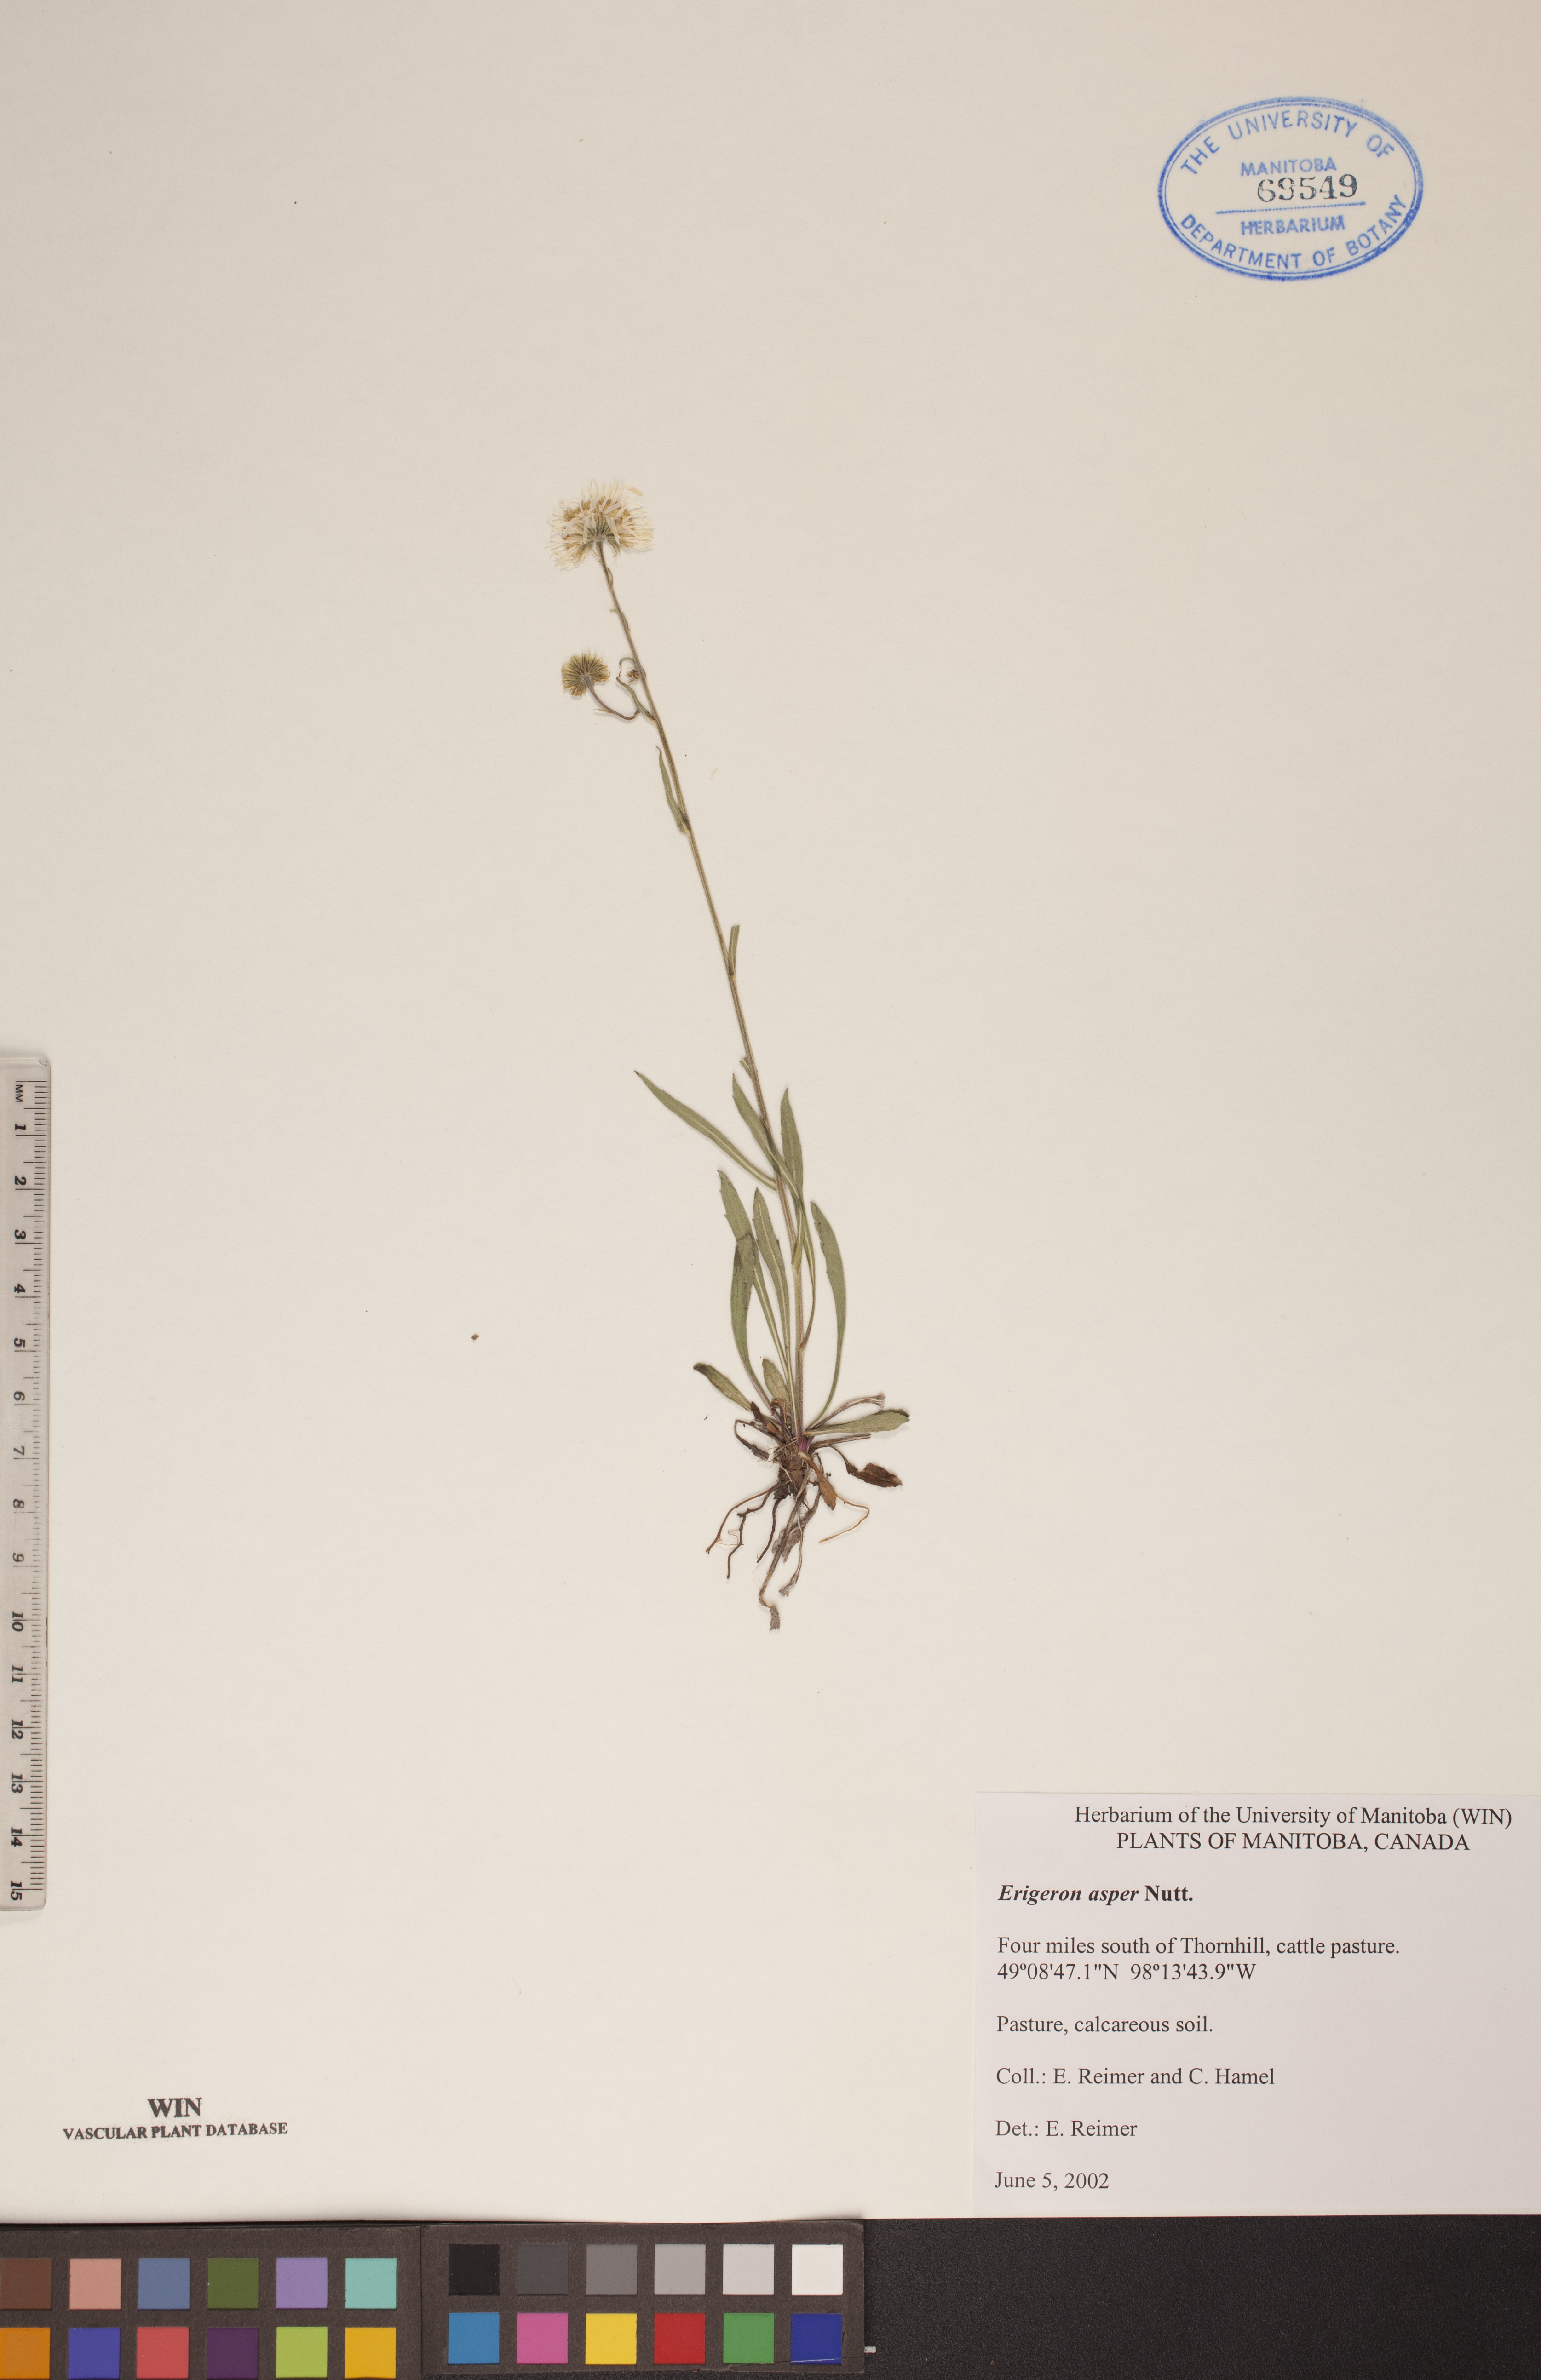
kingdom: Plantae
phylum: Tracheophyta
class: Magnoliopsida
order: Asterales
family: Asteraceae
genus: Erigeron
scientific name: Erigeron glabellus
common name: Smooth fleabane
